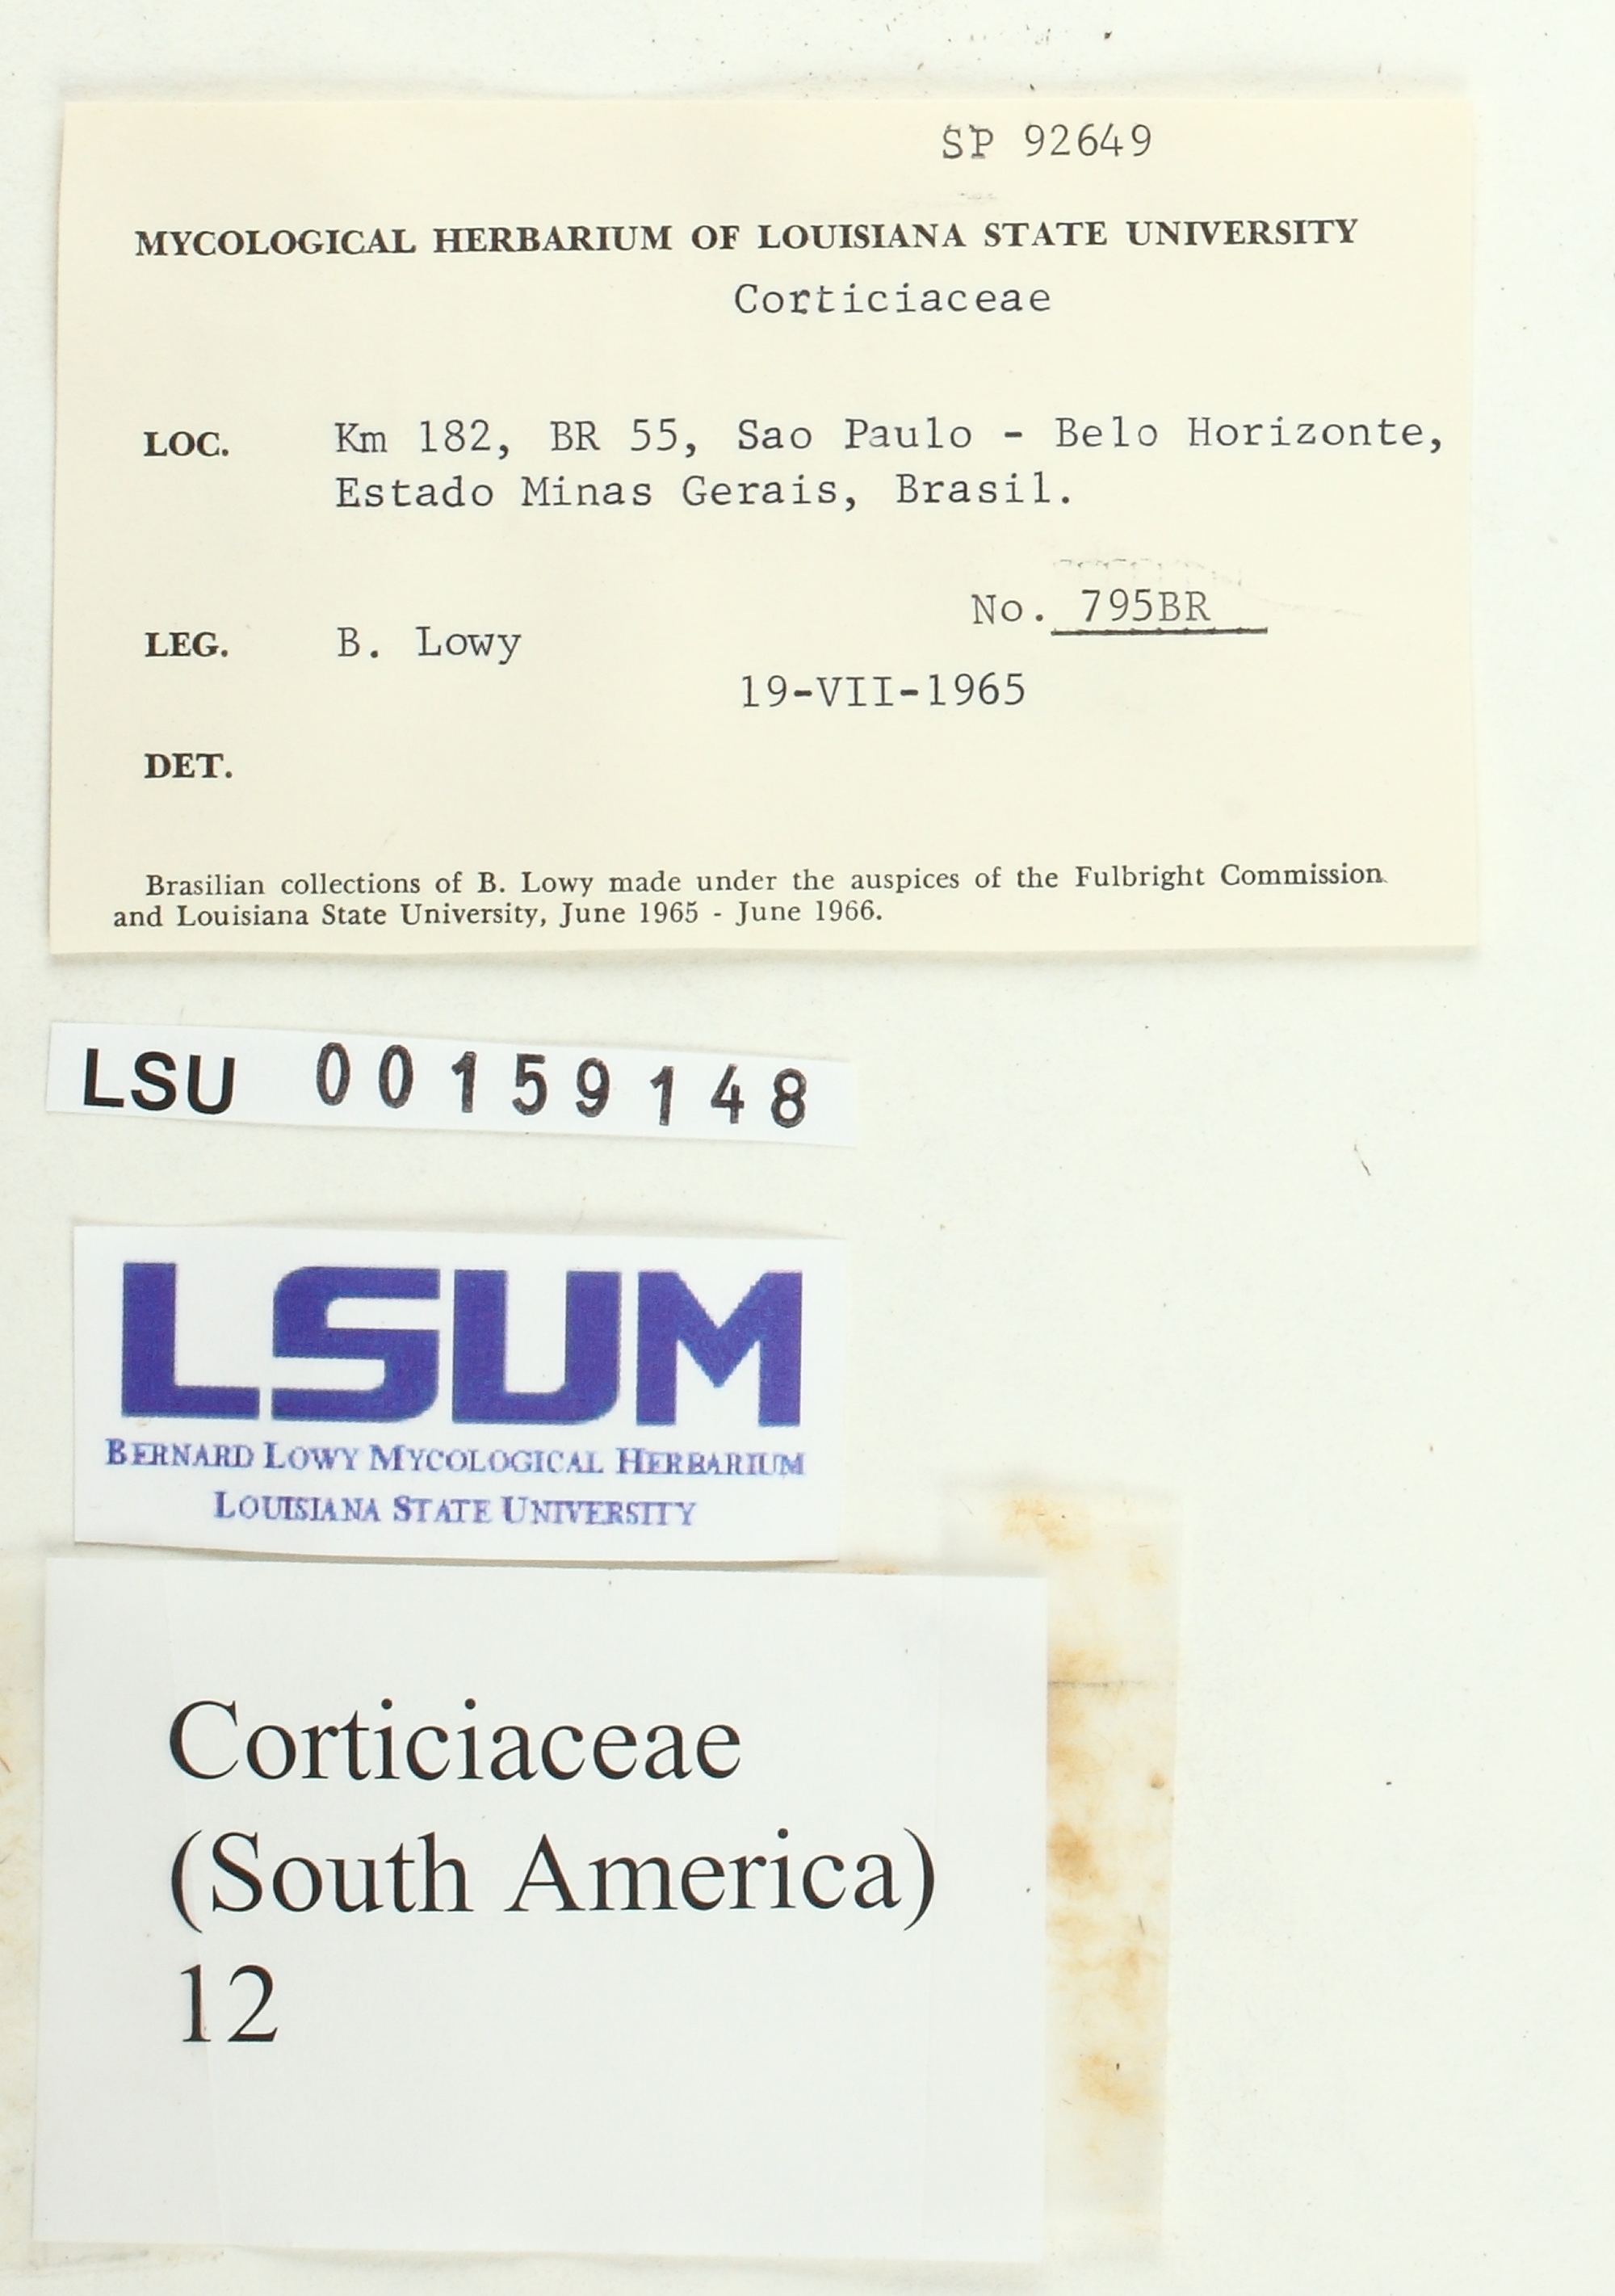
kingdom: Fungi
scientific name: Fungi
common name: Fungi
